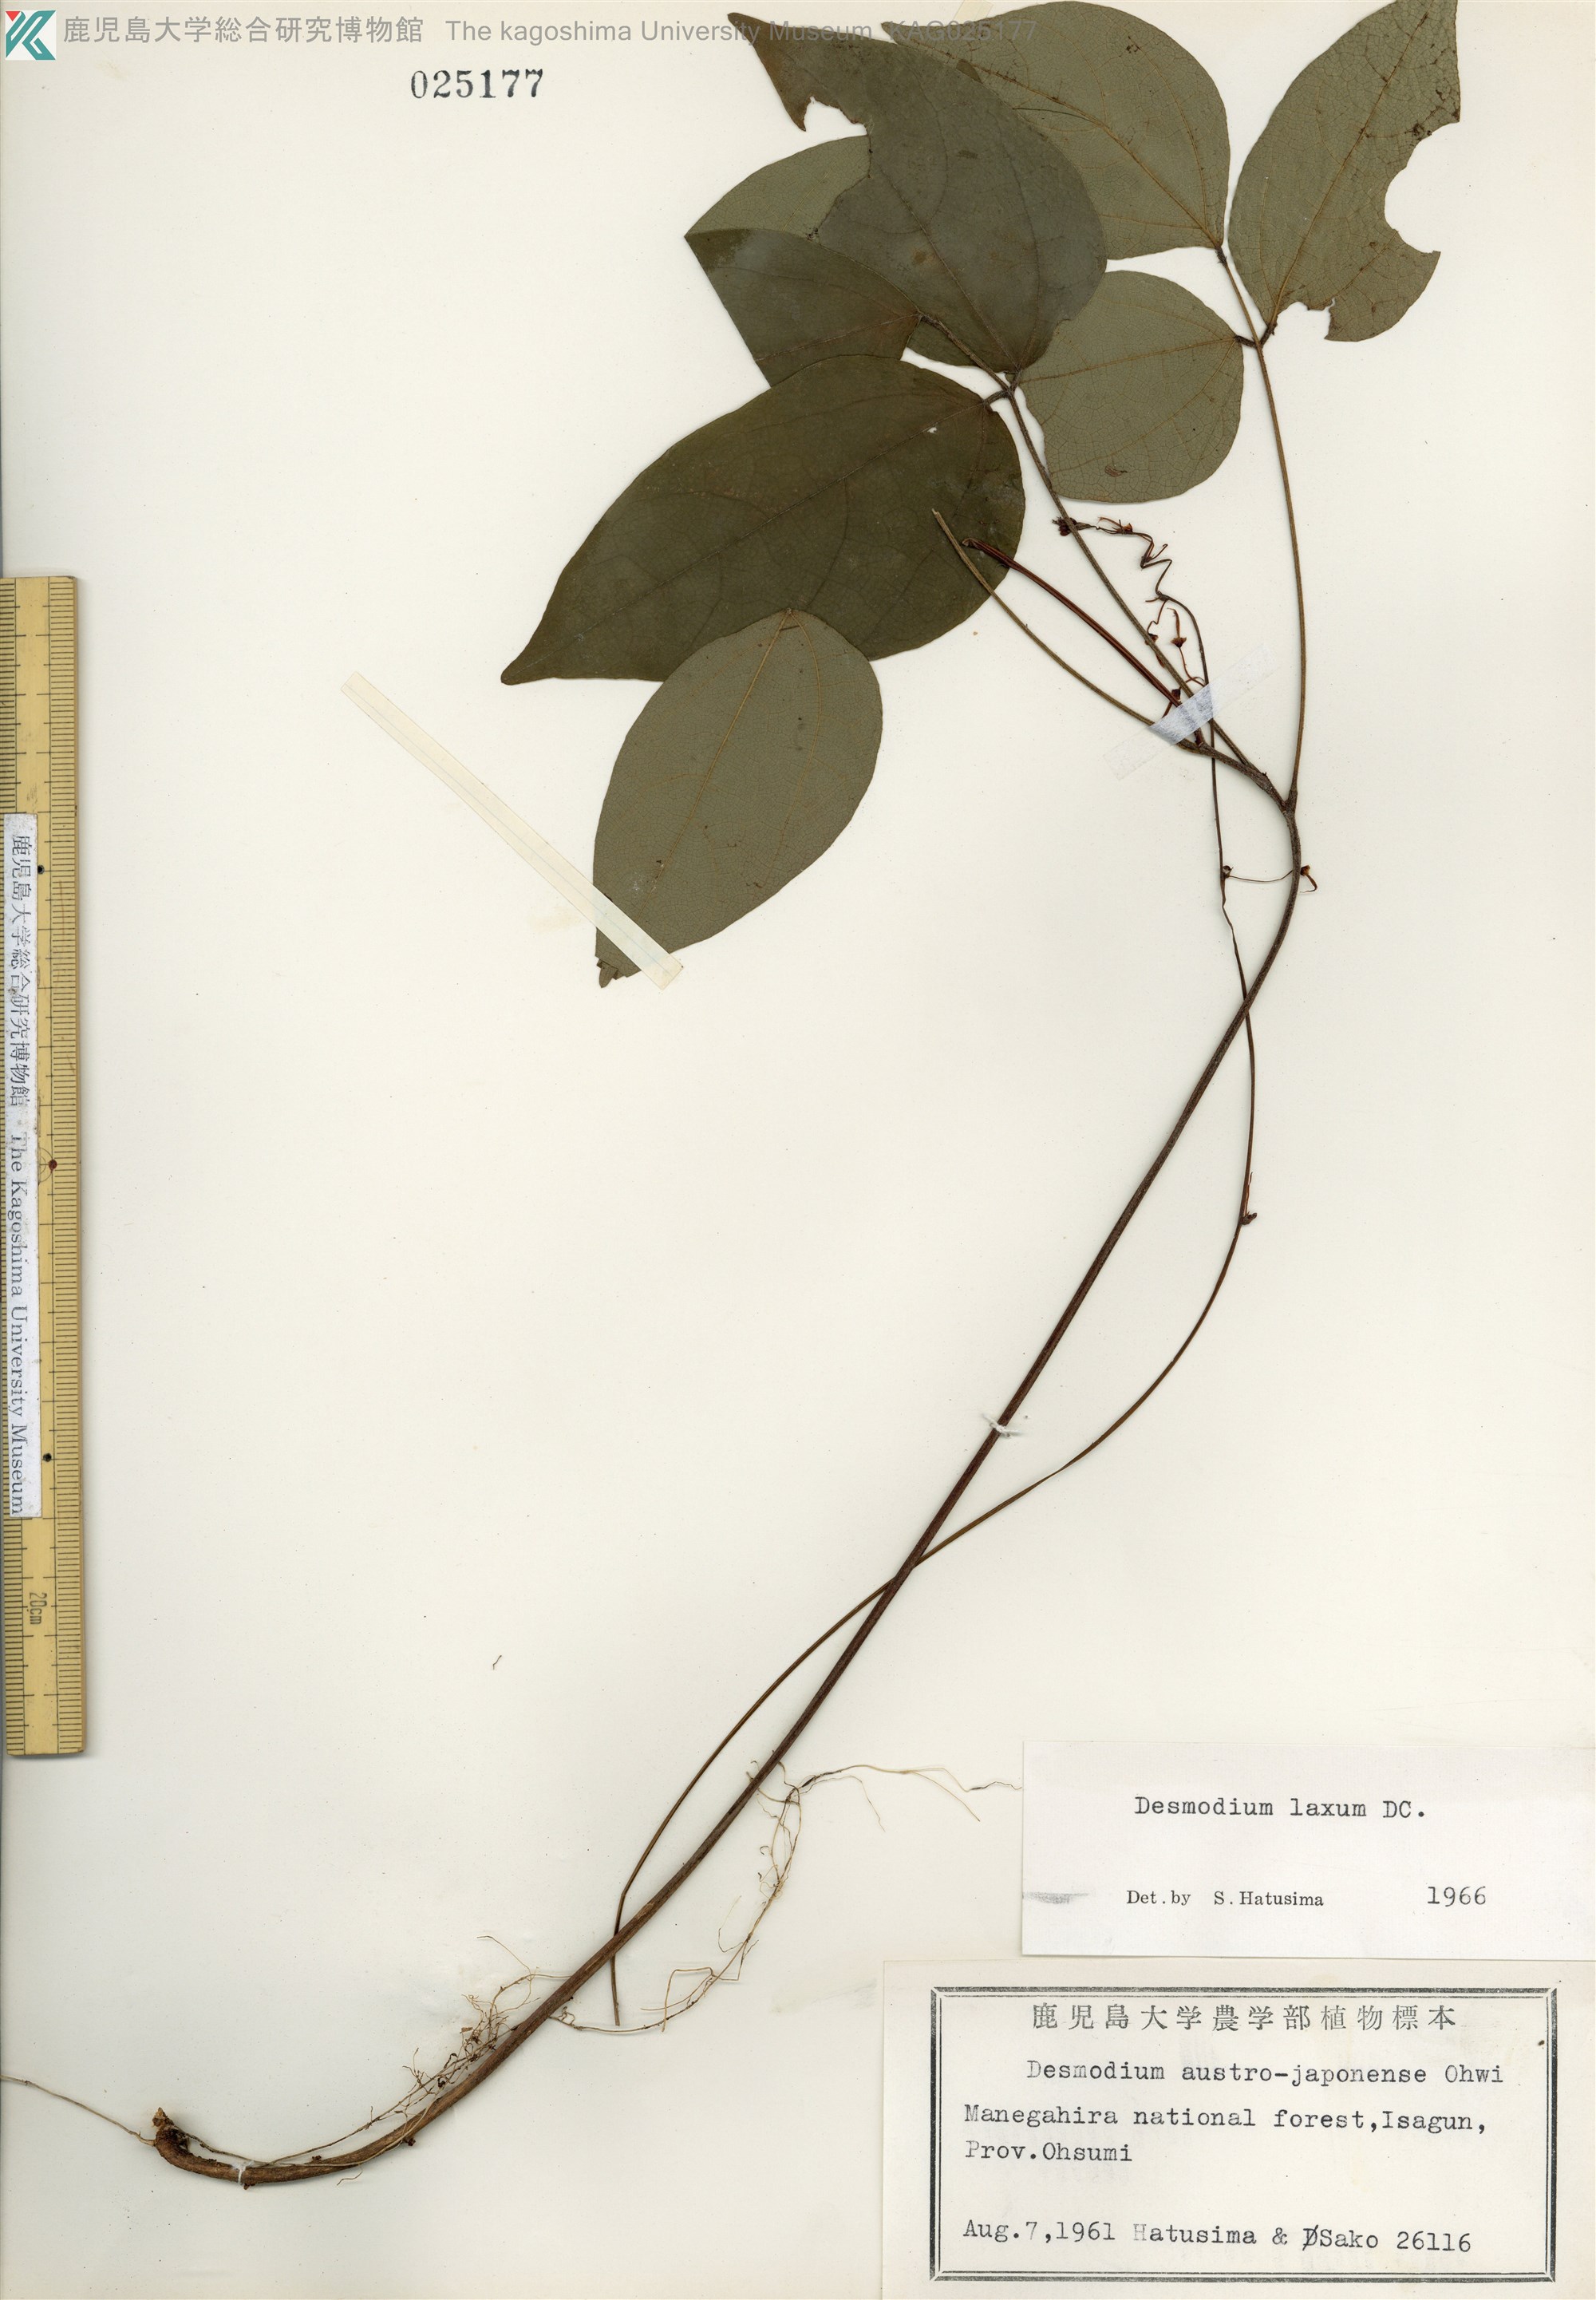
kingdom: Plantae
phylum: Tracheophyta
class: Magnoliopsida
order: Fabales
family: Fabaceae
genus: Desmodium
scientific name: Desmodium laxum
